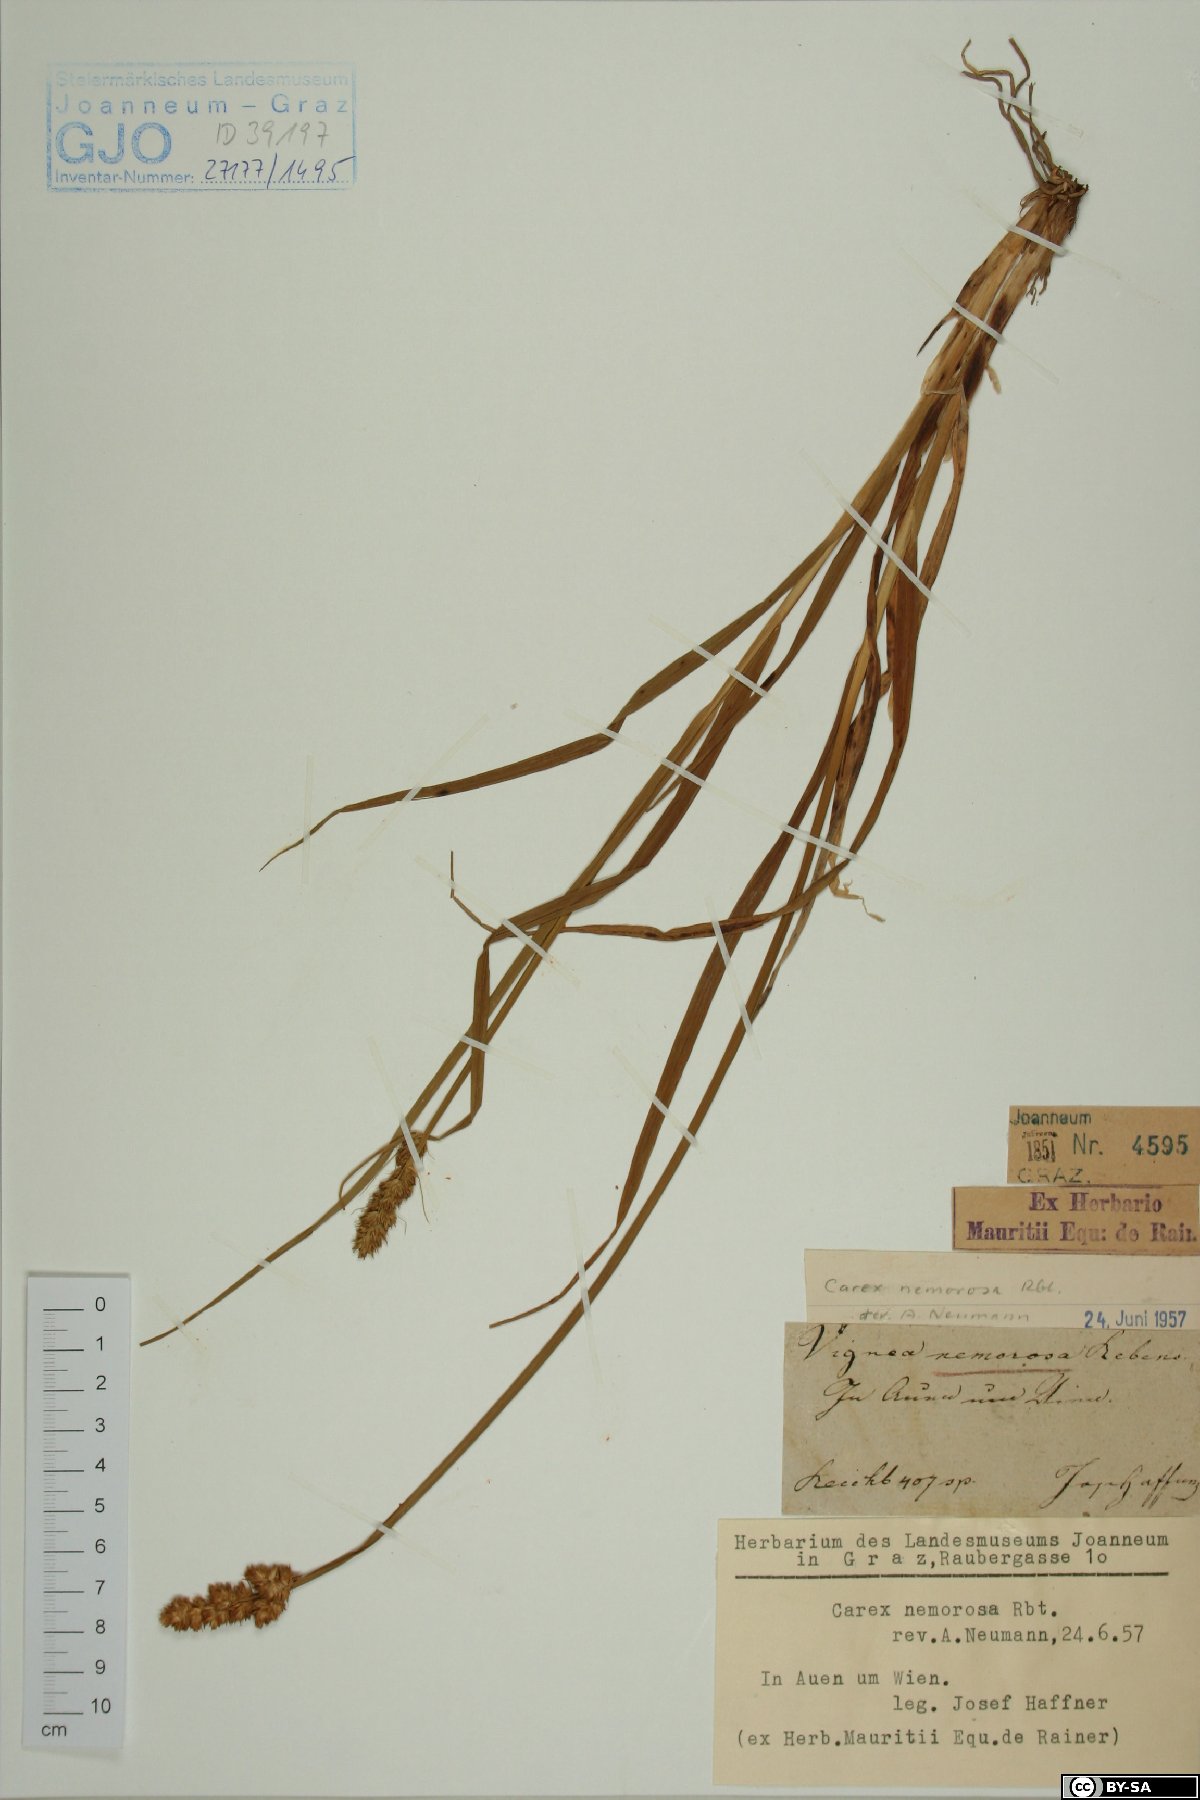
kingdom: Plantae
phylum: Tracheophyta
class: Liliopsida
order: Poales
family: Cyperaceae
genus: Carex
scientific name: Carex otrubae
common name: False fox-sedge
